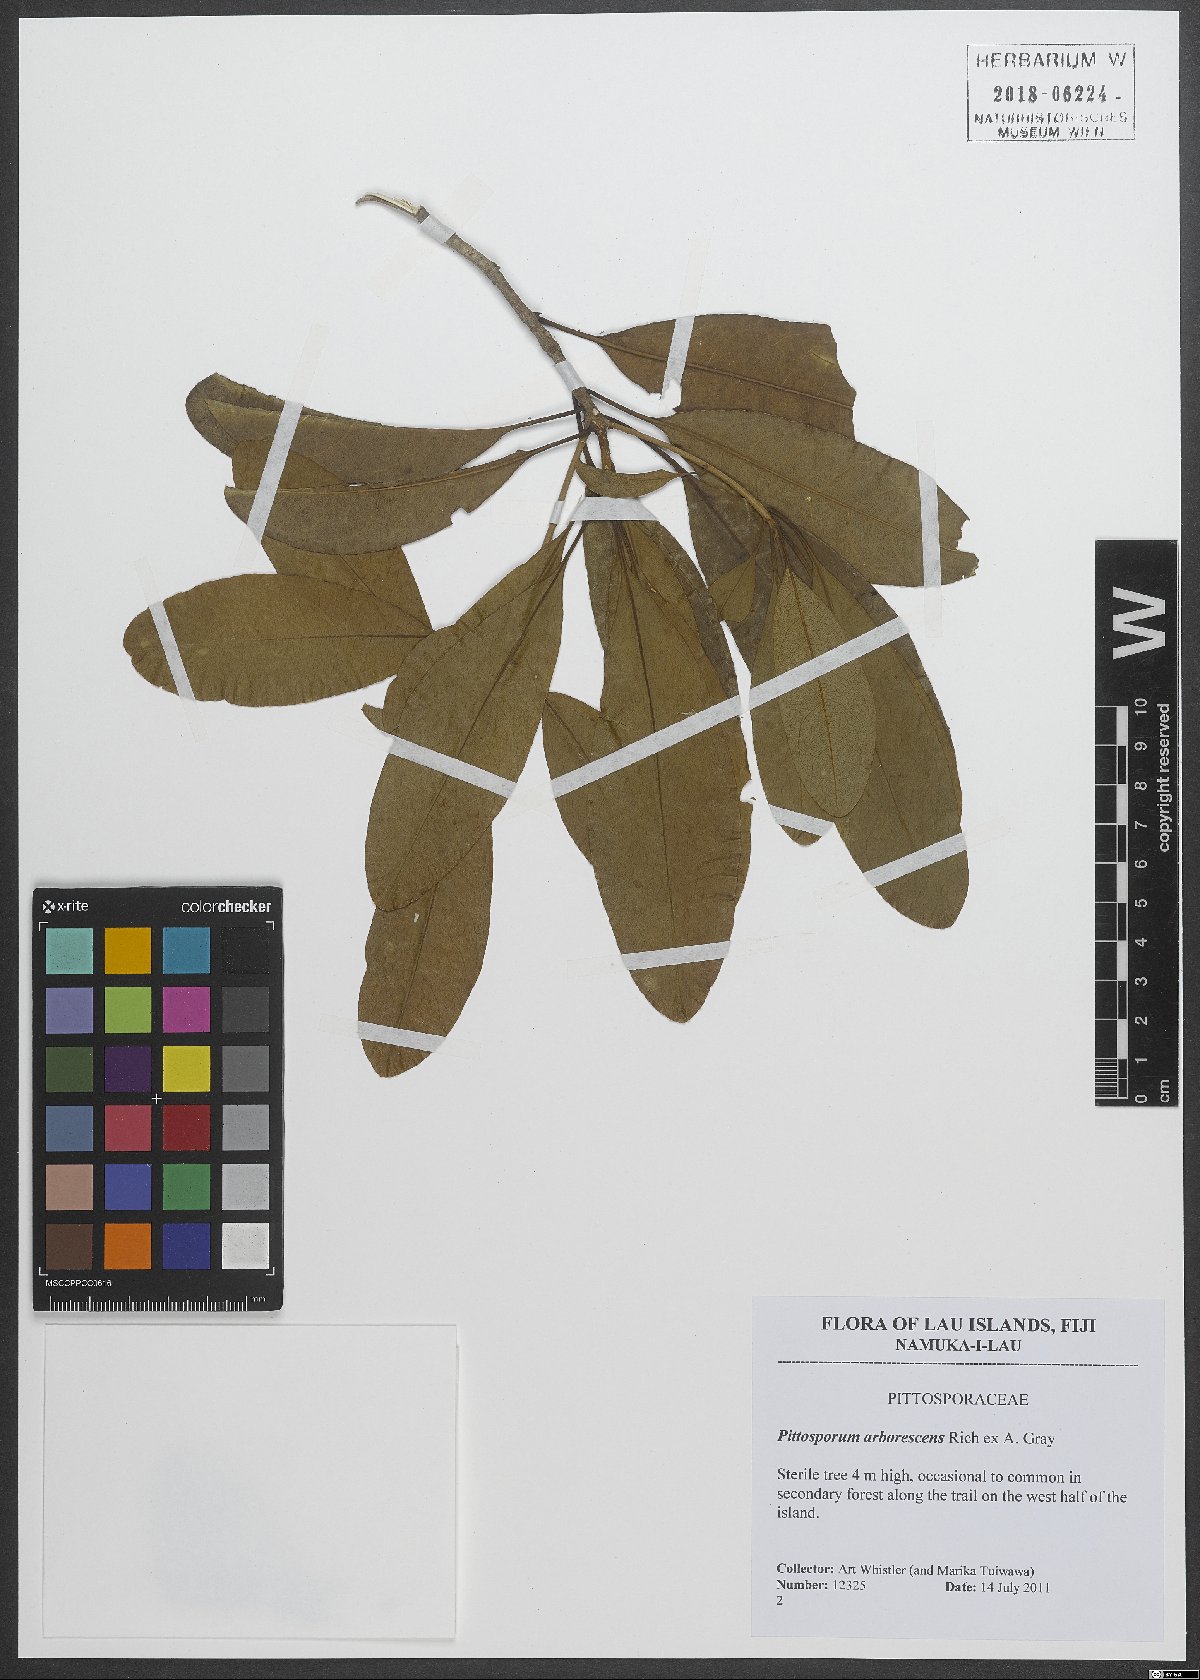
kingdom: Plantae
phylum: Tracheophyta
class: Magnoliopsida
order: Apiales
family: Pittosporaceae
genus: Pittosporum
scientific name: Pittosporum arborescens
